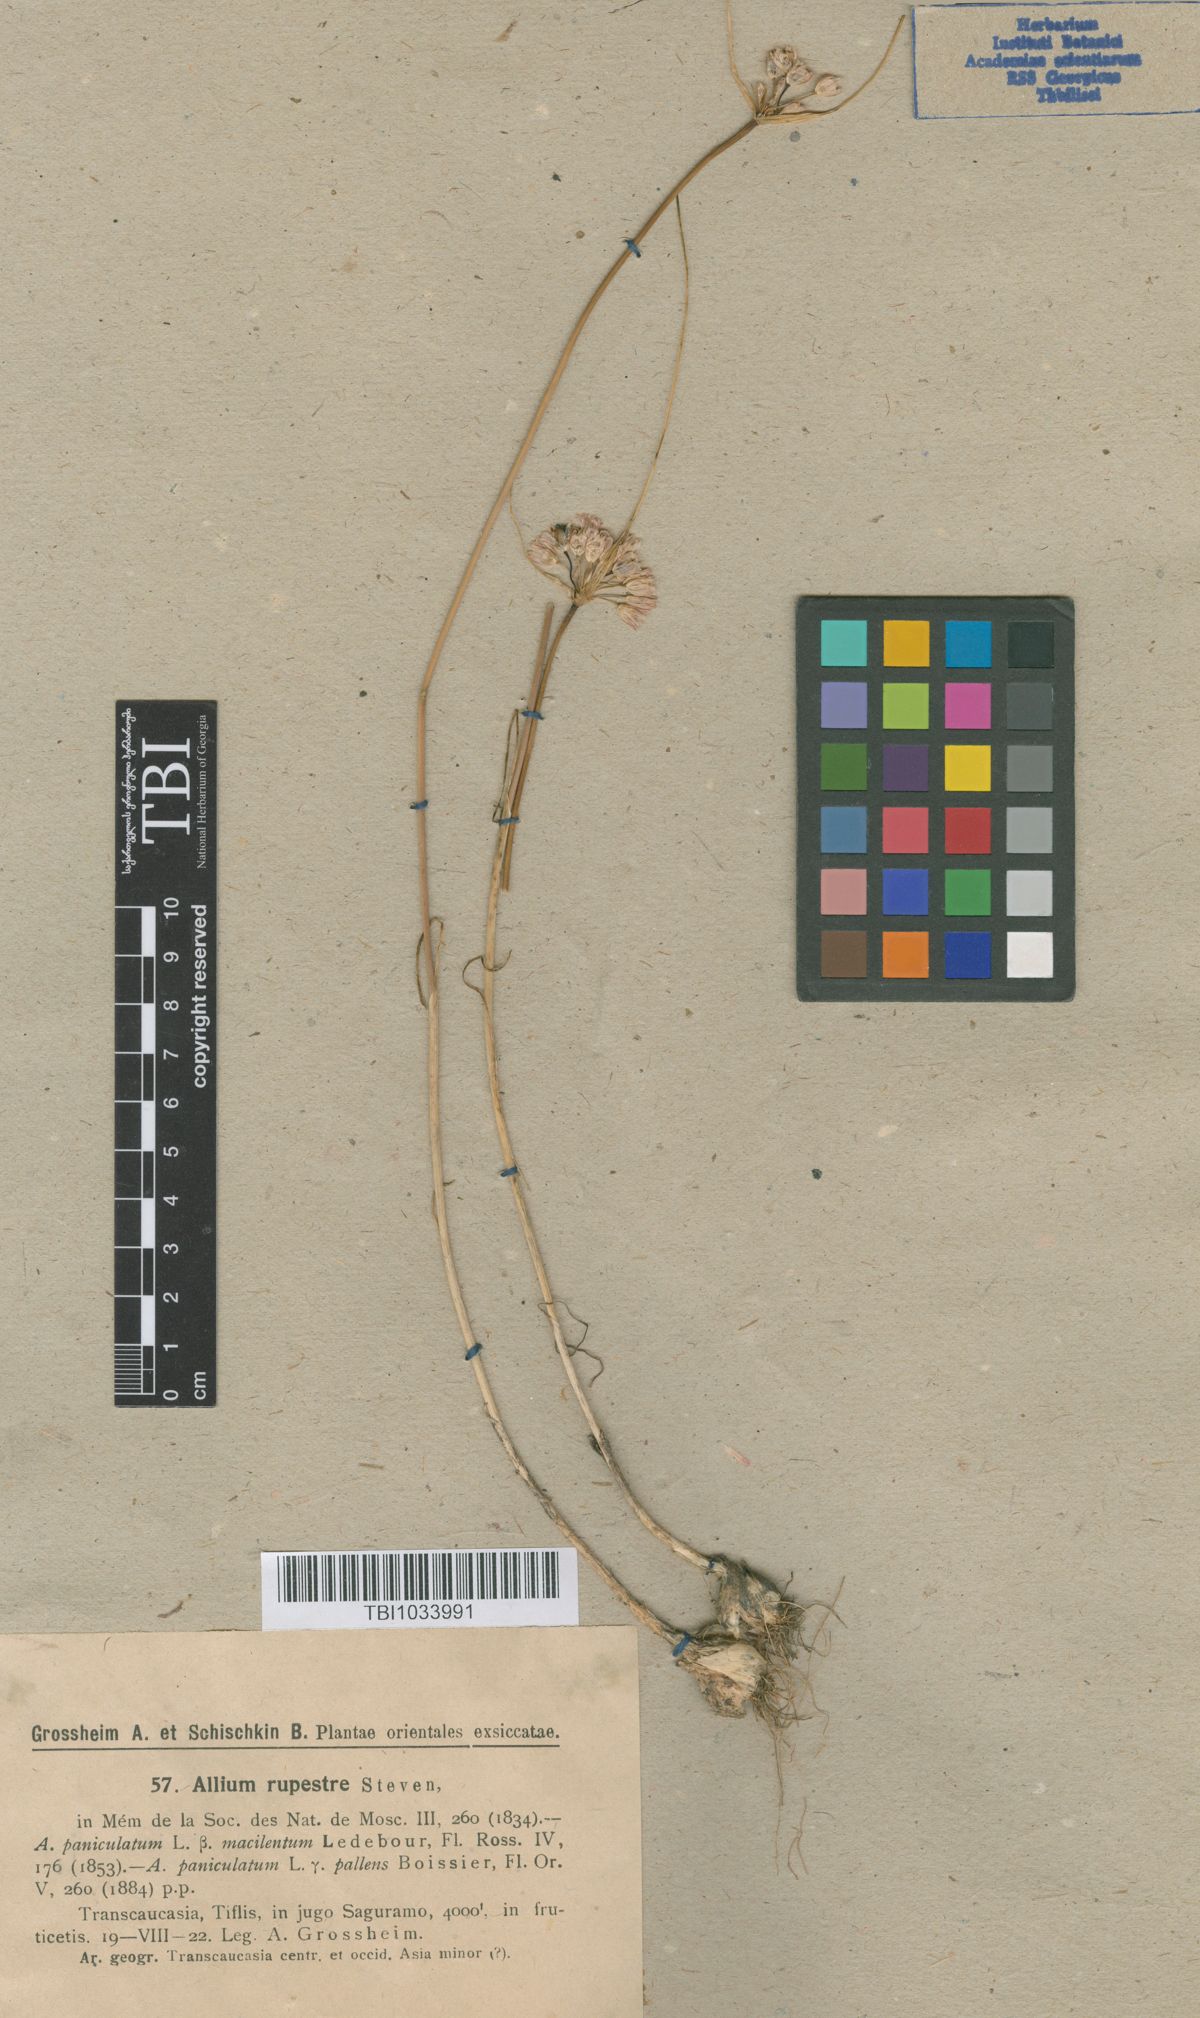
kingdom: Plantae
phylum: Tracheophyta
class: Liliopsida
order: Asparagales
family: Amaryllidaceae
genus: Allium
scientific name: Allium rupestre
